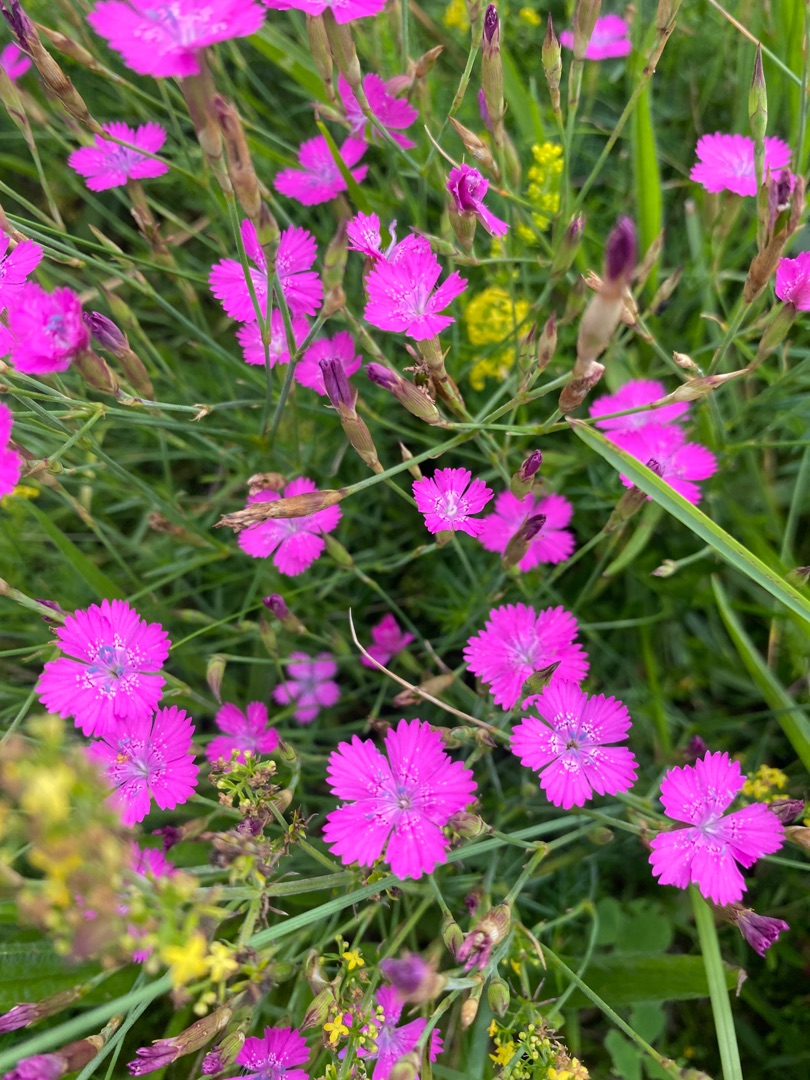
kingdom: Plantae
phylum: Tracheophyta
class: Magnoliopsida
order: Caryophyllales
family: Caryophyllaceae
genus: Dianthus
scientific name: Dianthus deltoides
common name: Bakke-nellike
